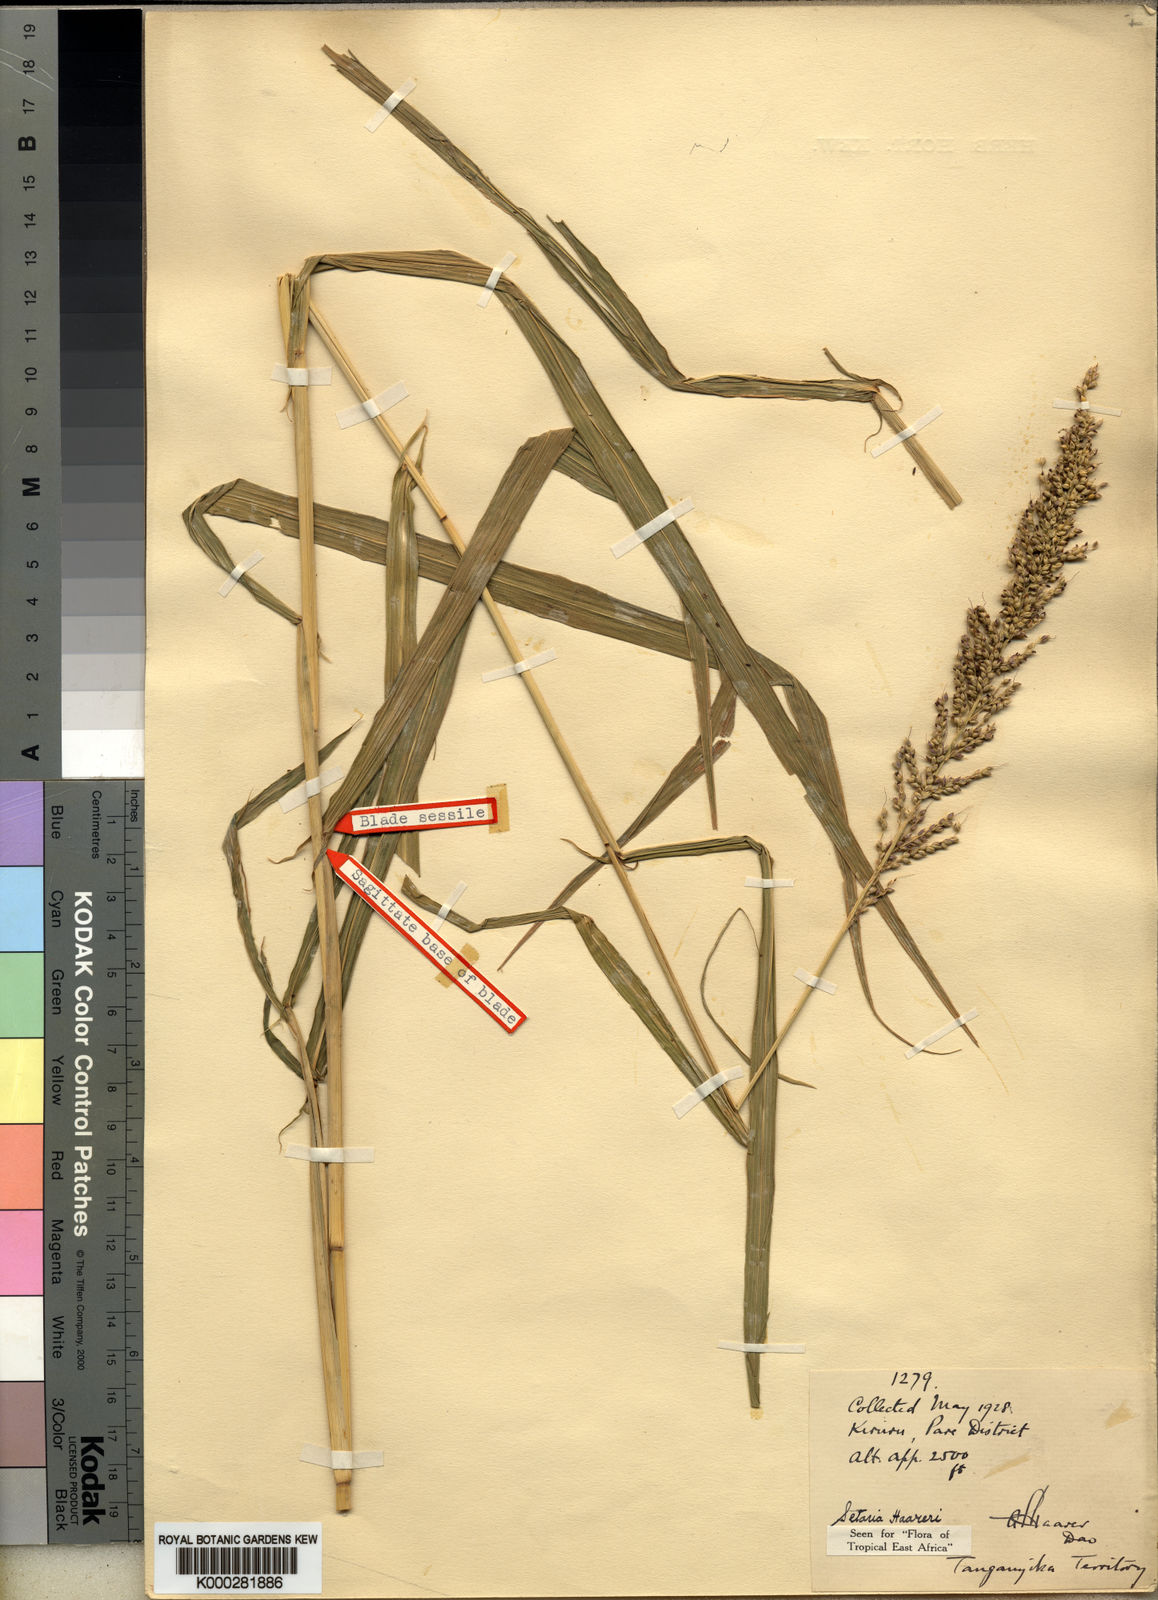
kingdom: Plantae
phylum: Tracheophyta
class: Liliopsida
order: Poales
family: Poaceae
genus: Setaria
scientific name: Setaria appendiculata
